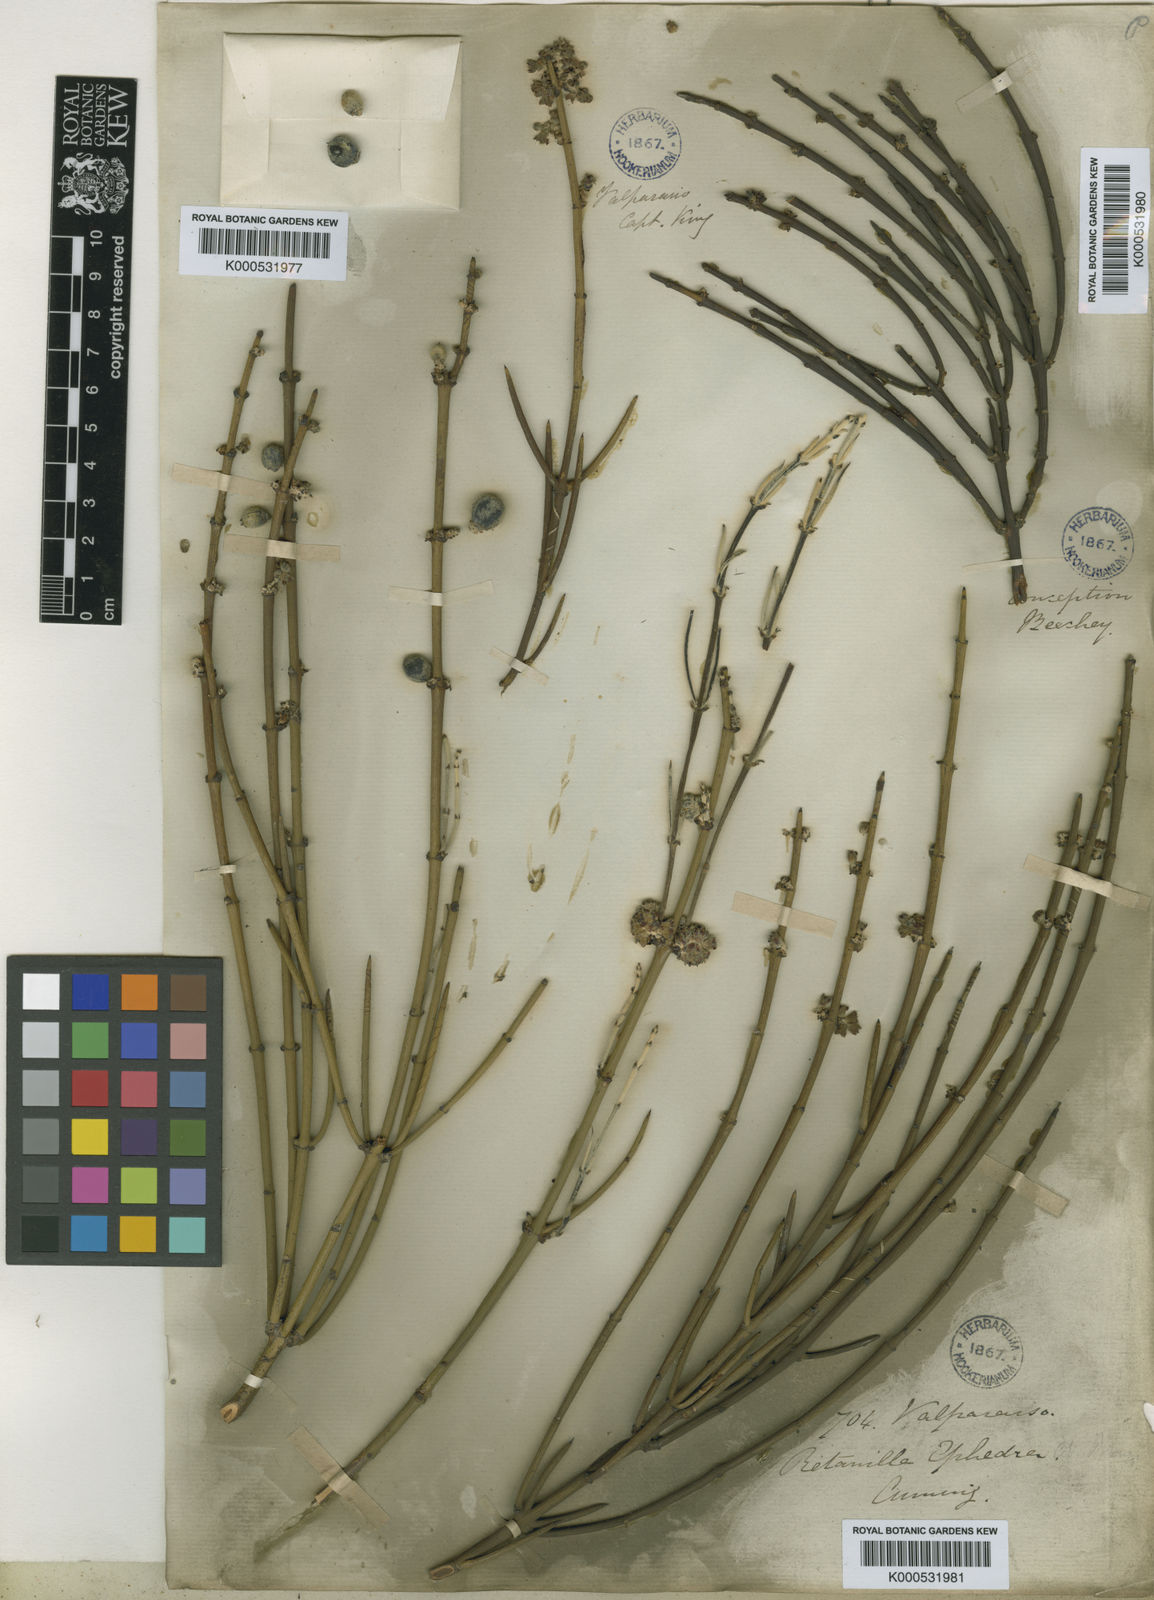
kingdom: Plantae
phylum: Tracheophyta
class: Magnoliopsida
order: Rosales
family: Rhamnaceae
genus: Retanilla
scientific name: Retanilla ephedra
